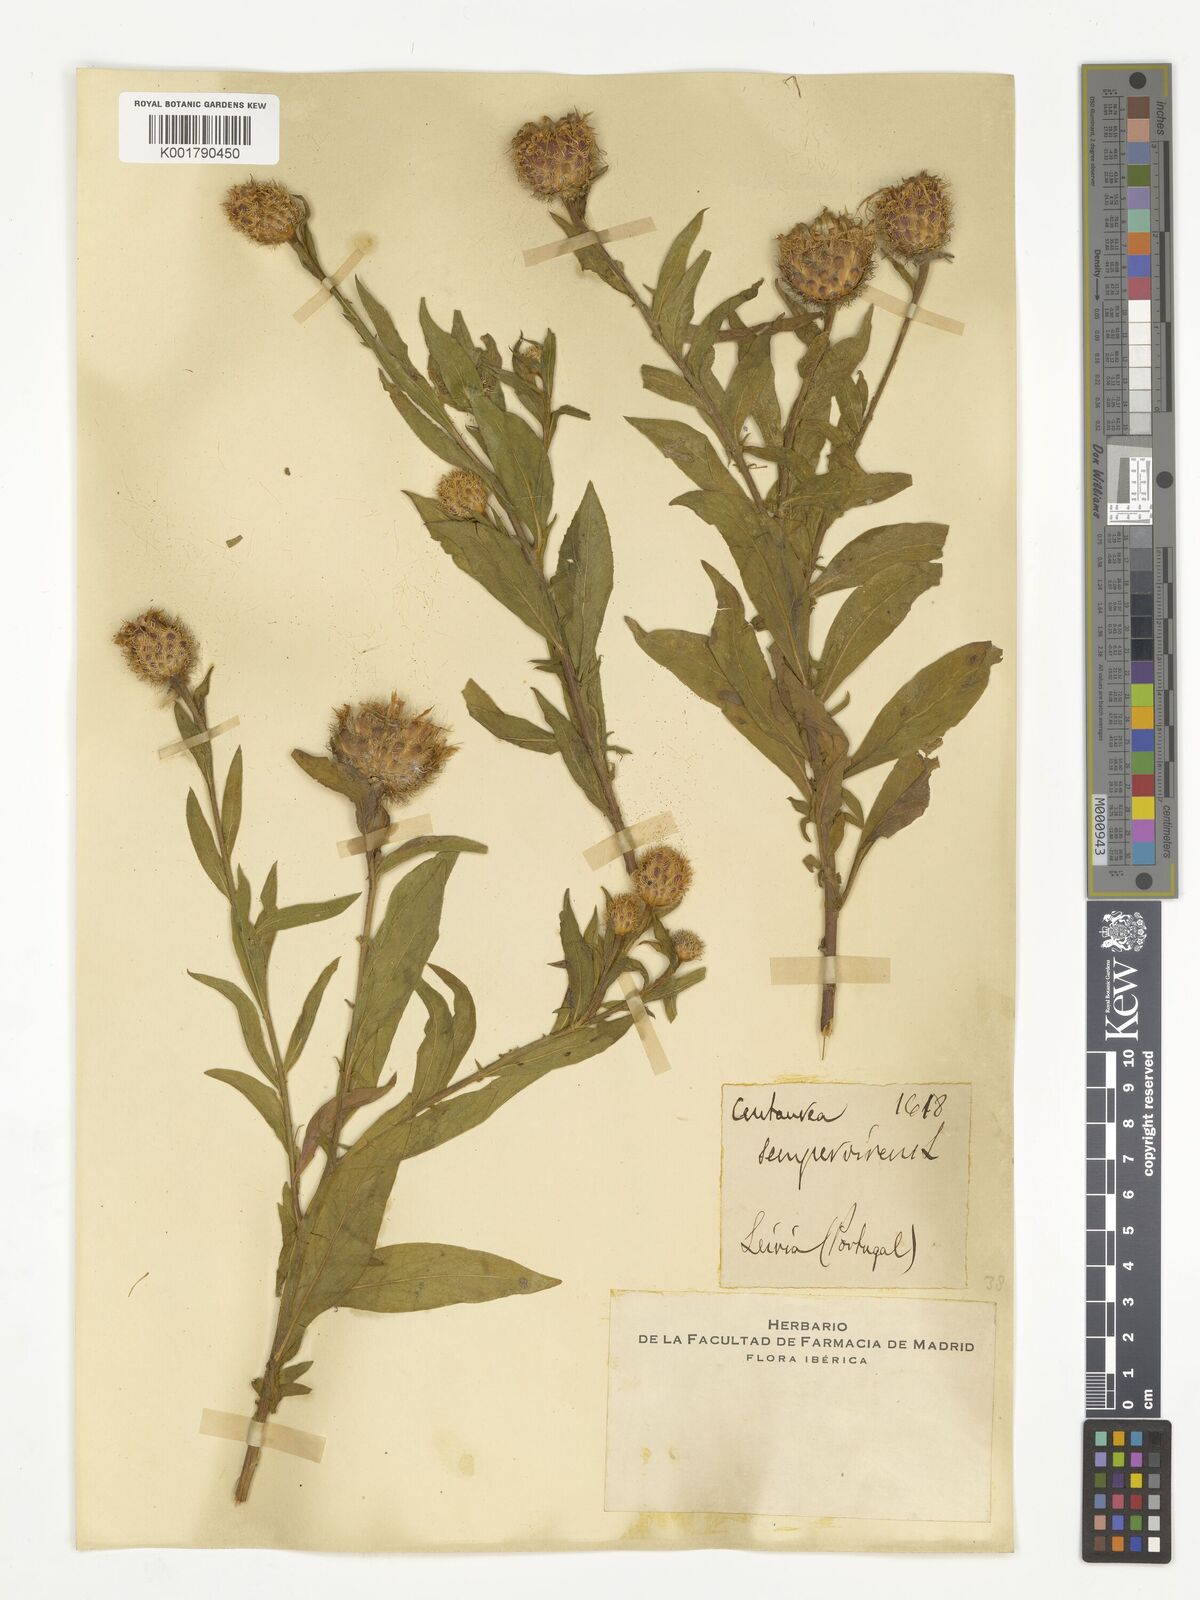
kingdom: Plantae
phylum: Tracheophyta
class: Magnoliopsida
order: Asterales
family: Asteraceae
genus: Cheirolophus
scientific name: Cheirolophus sempervirens
